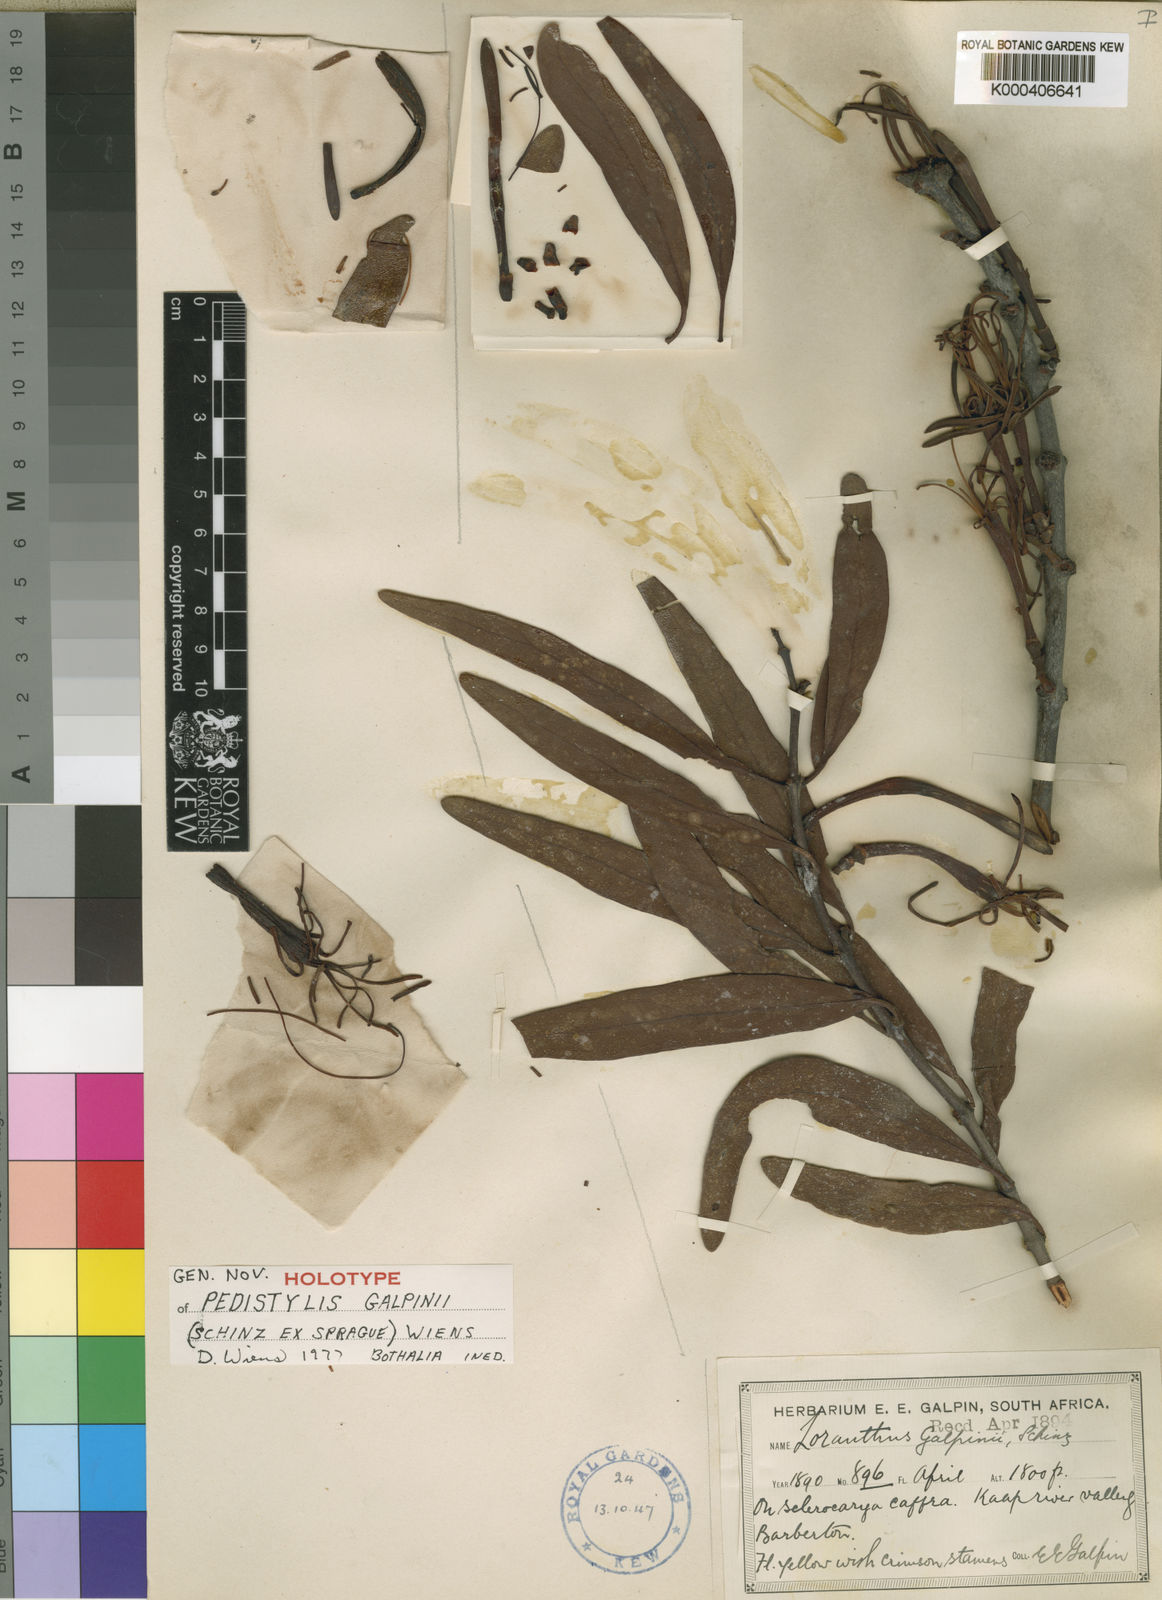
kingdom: Plantae
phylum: Tracheophyta
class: Magnoliopsida
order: Santalales
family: Loranthaceae
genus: Pedistylis
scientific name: Pedistylis galpinii
